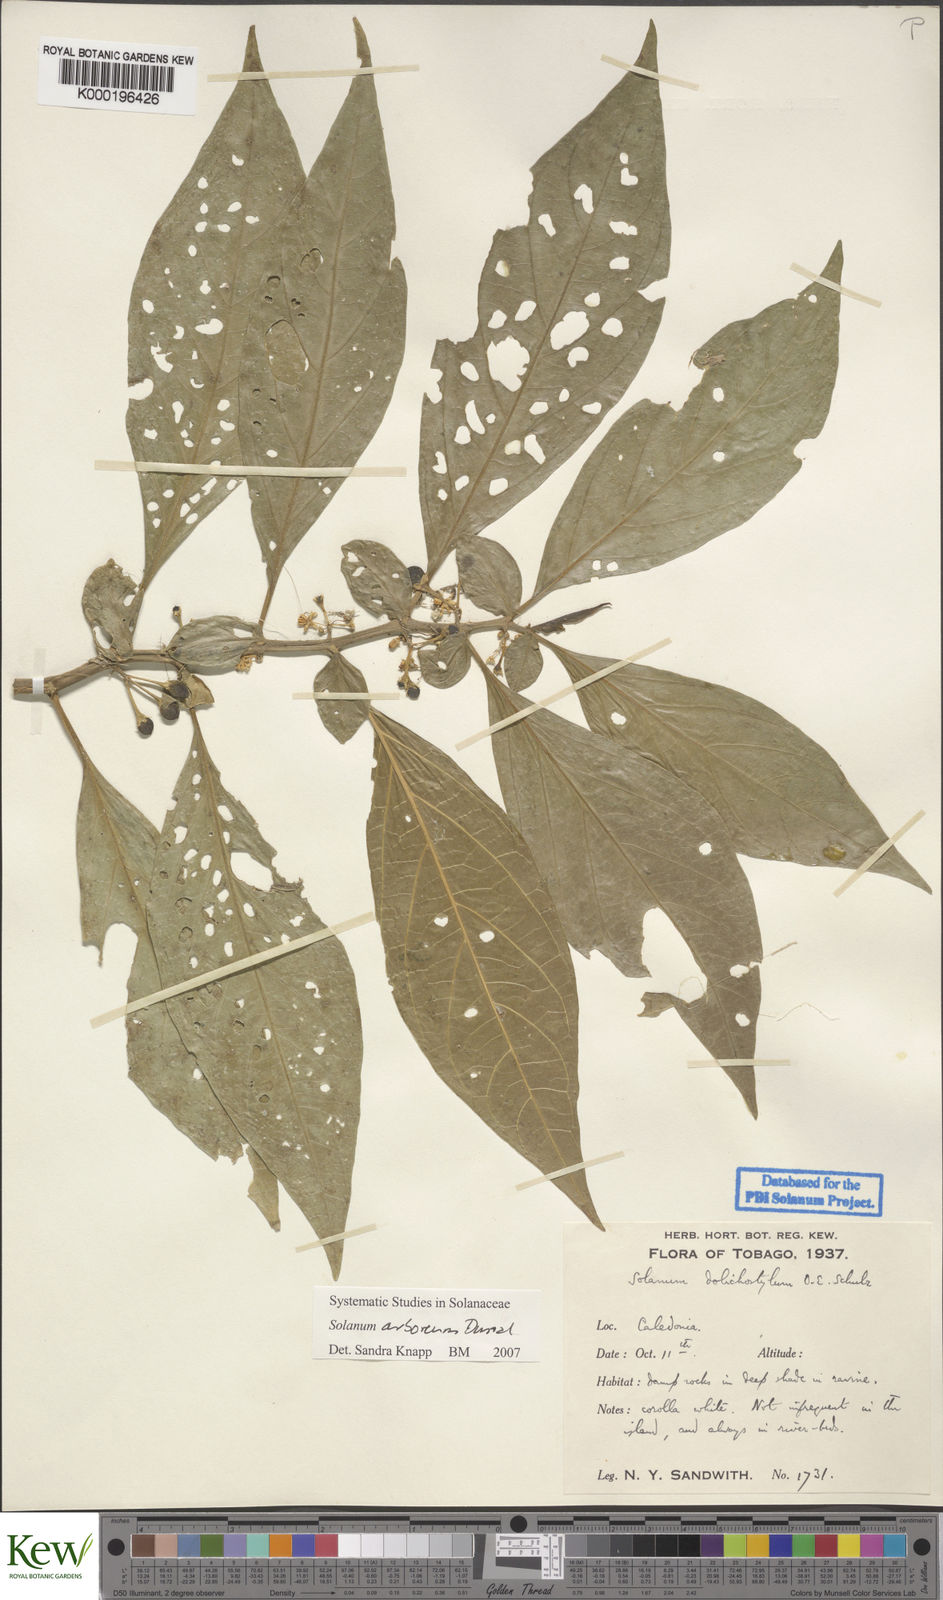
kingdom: Plantae
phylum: Tracheophyta
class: Magnoliopsida
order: Solanales
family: Solanaceae
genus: Solanum
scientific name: Solanum arboreum
